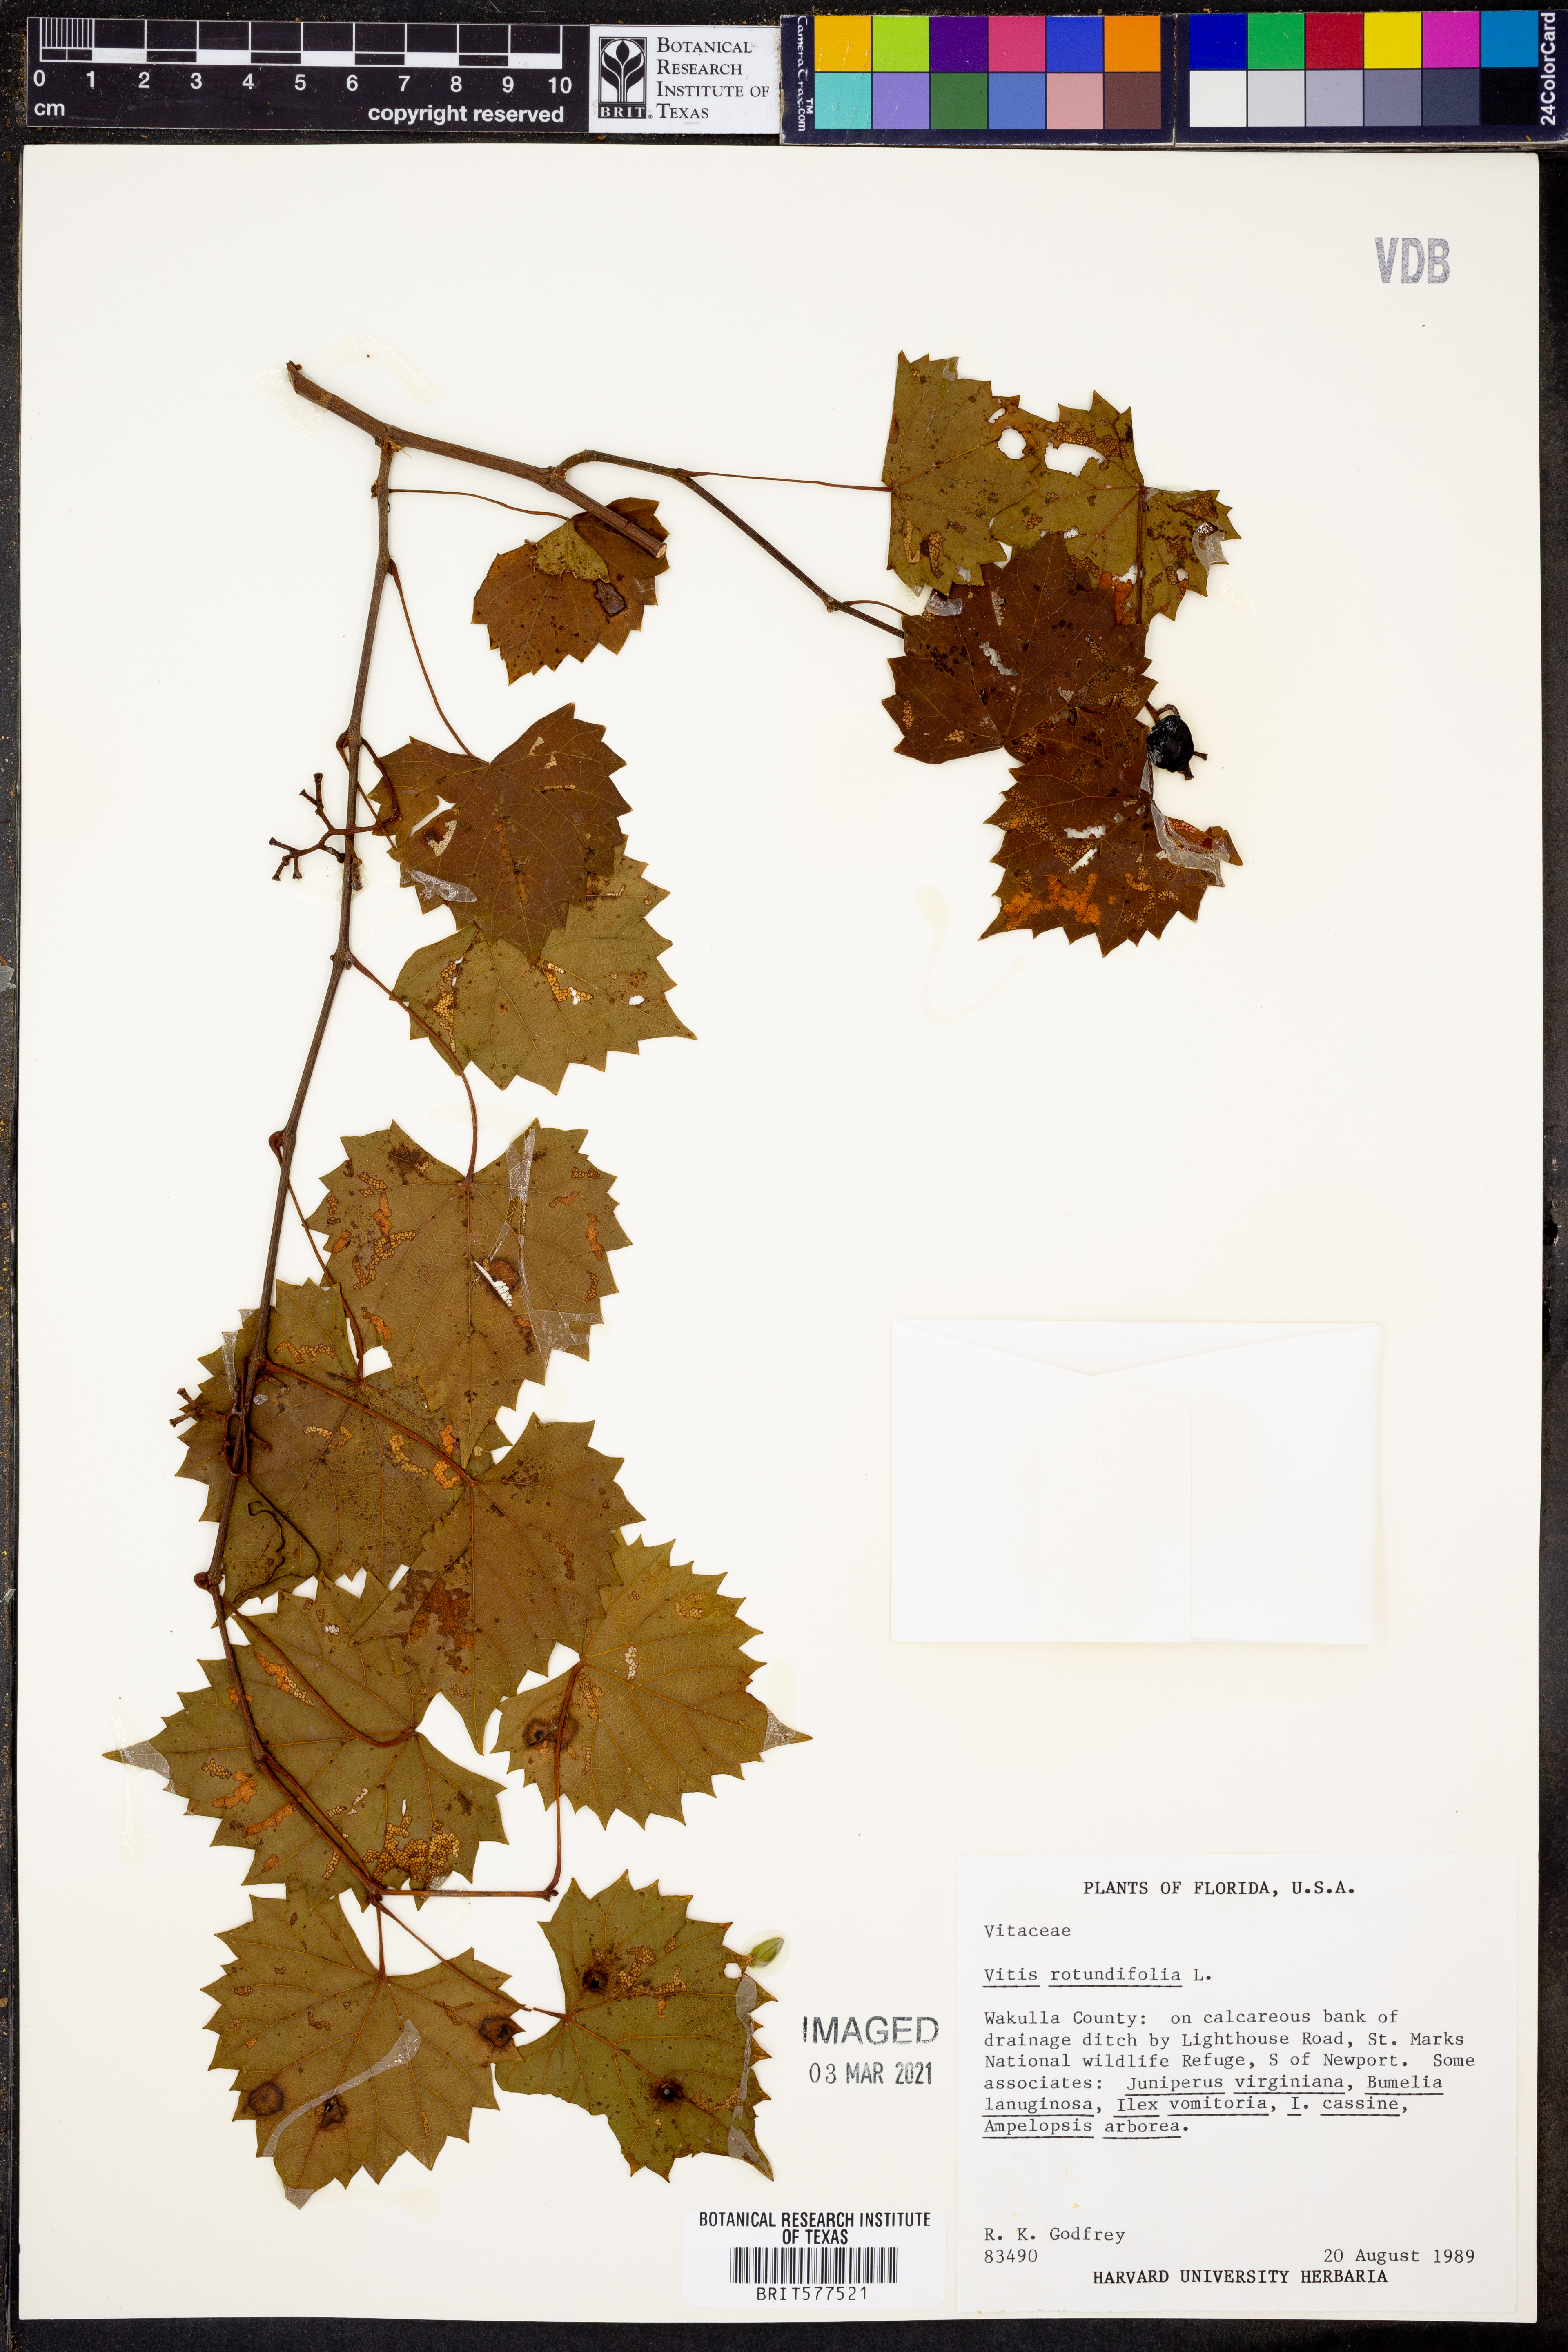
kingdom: Plantae
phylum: Tracheophyta
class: Magnoliopsida
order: Vitales
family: Vitaceae
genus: Vitis
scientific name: Vitis rotundifolia
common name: Muscadine grape
